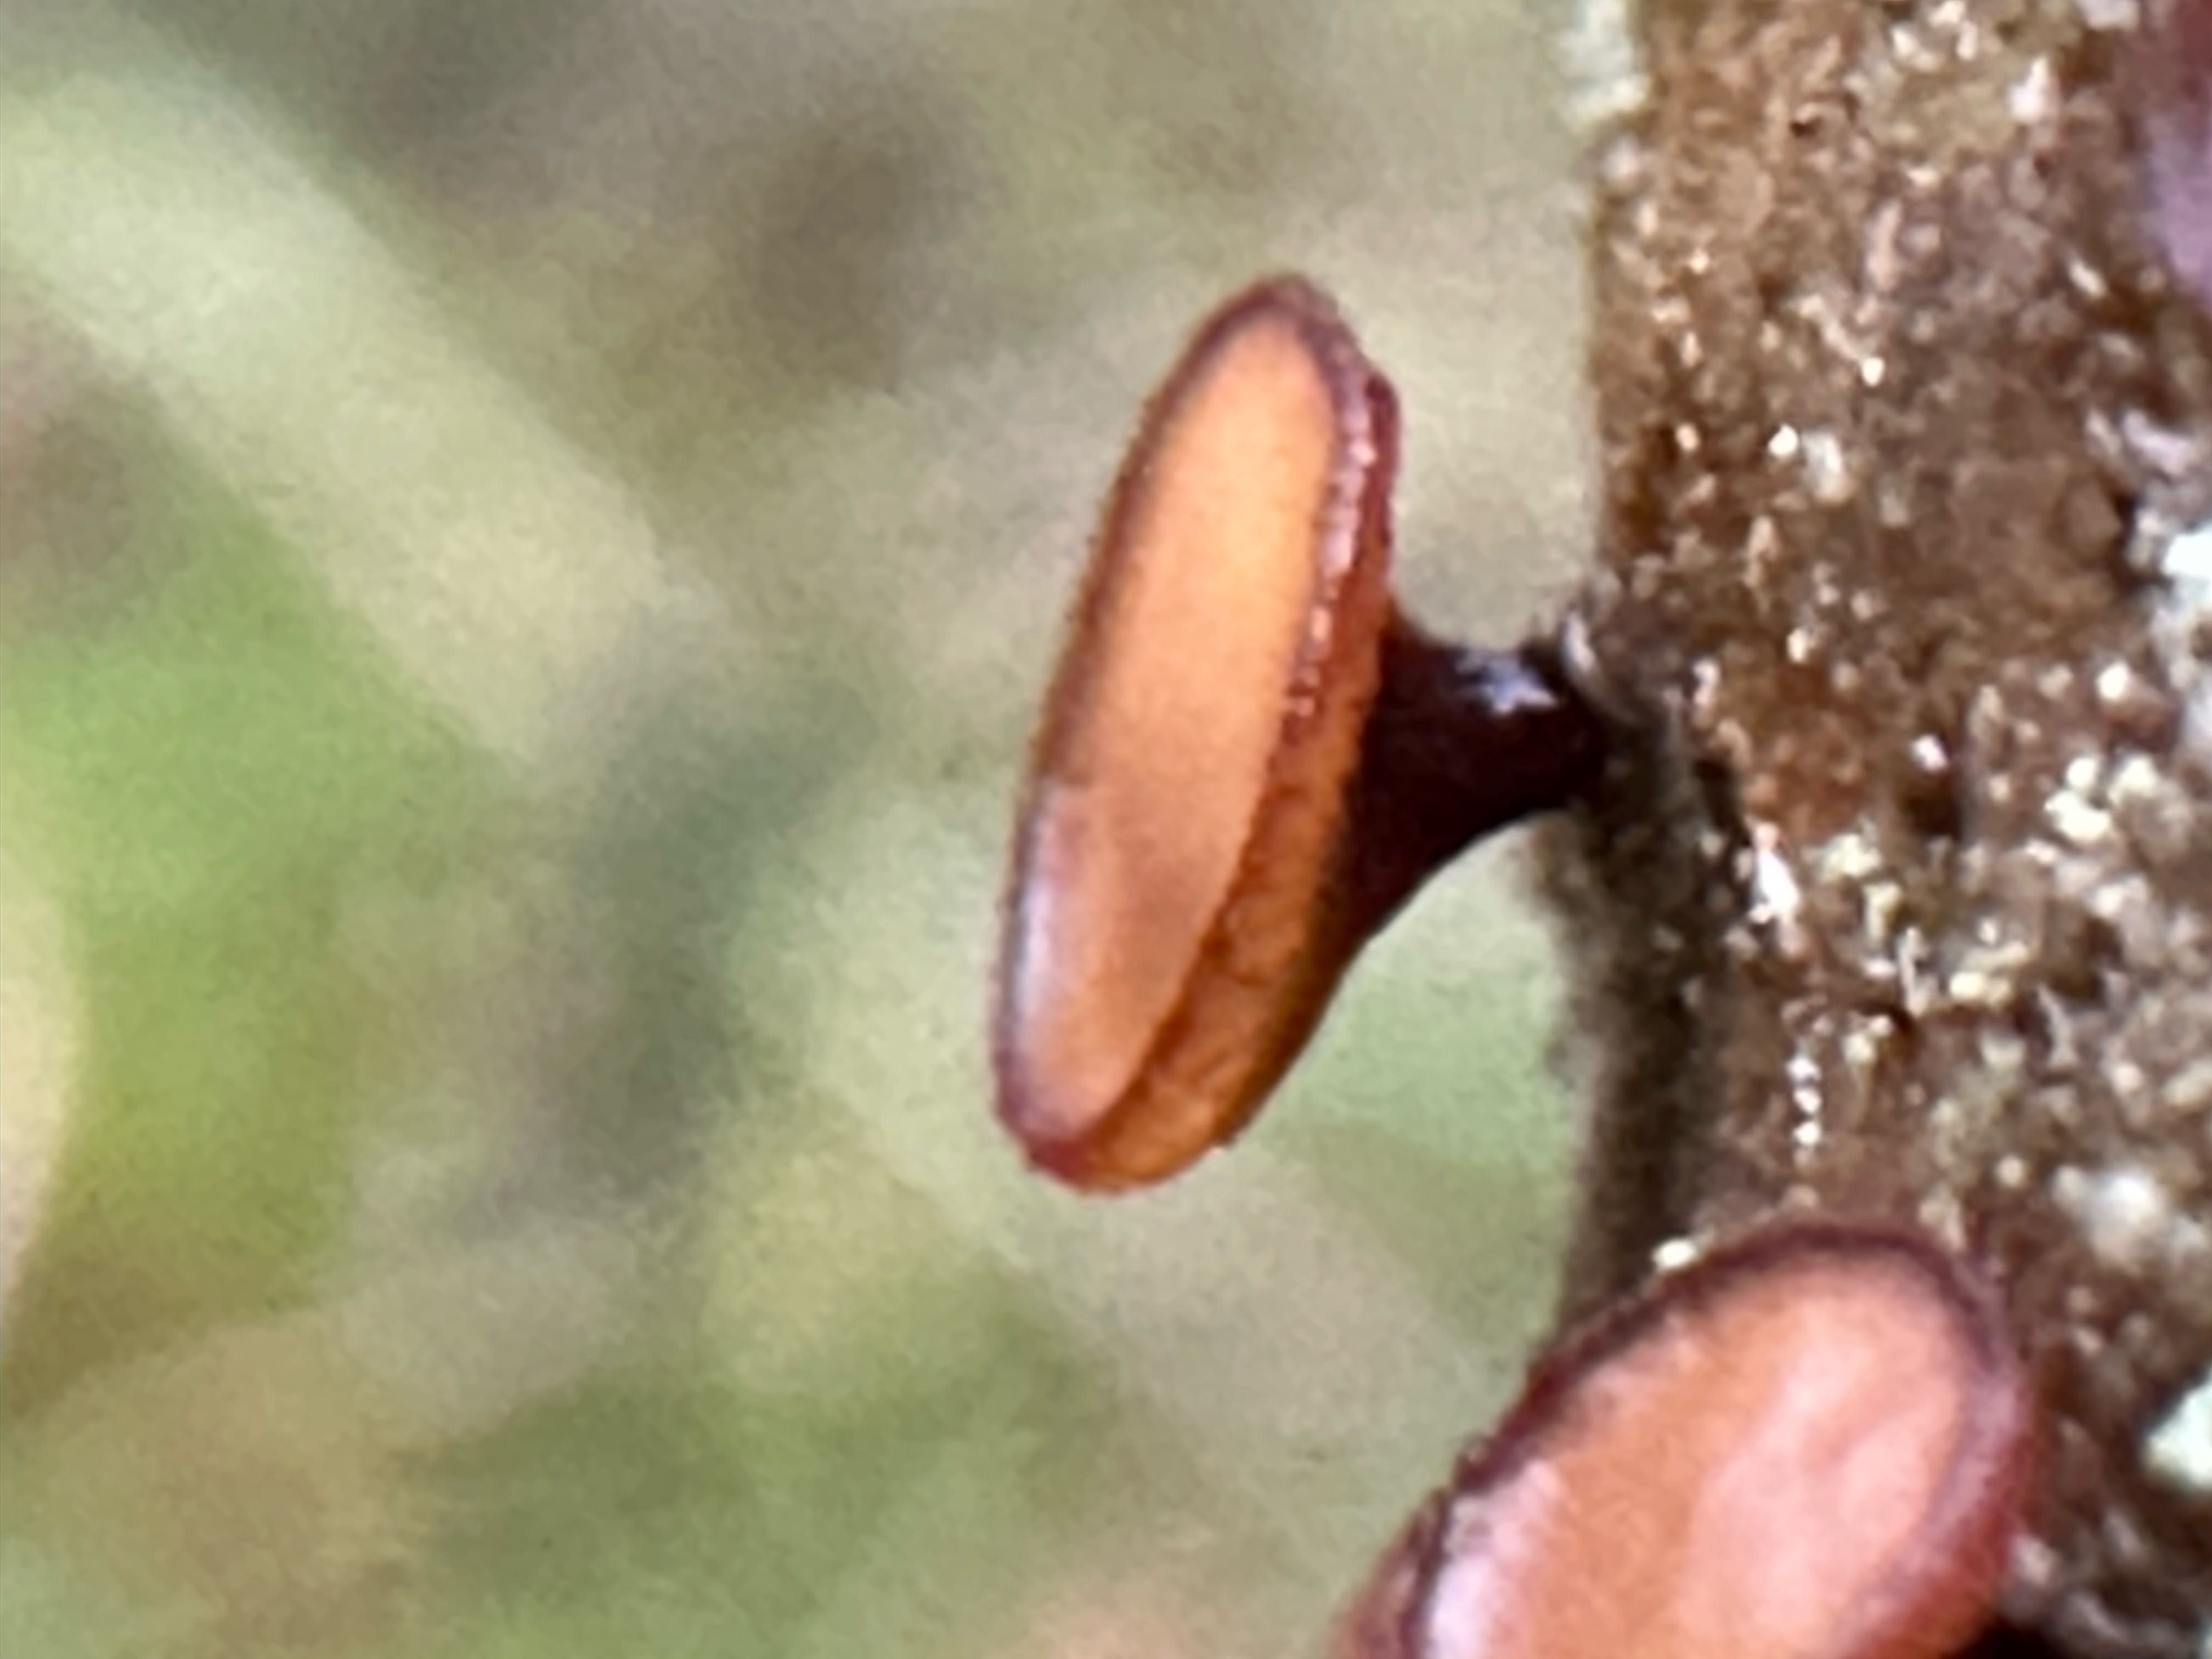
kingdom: Fungi
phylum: Ascomycota
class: Leotiomycetes
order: Helotiales
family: Rutstroemiaceae
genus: Rutstroemia
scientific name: Rutstroemia firma
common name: gren-brunskive
